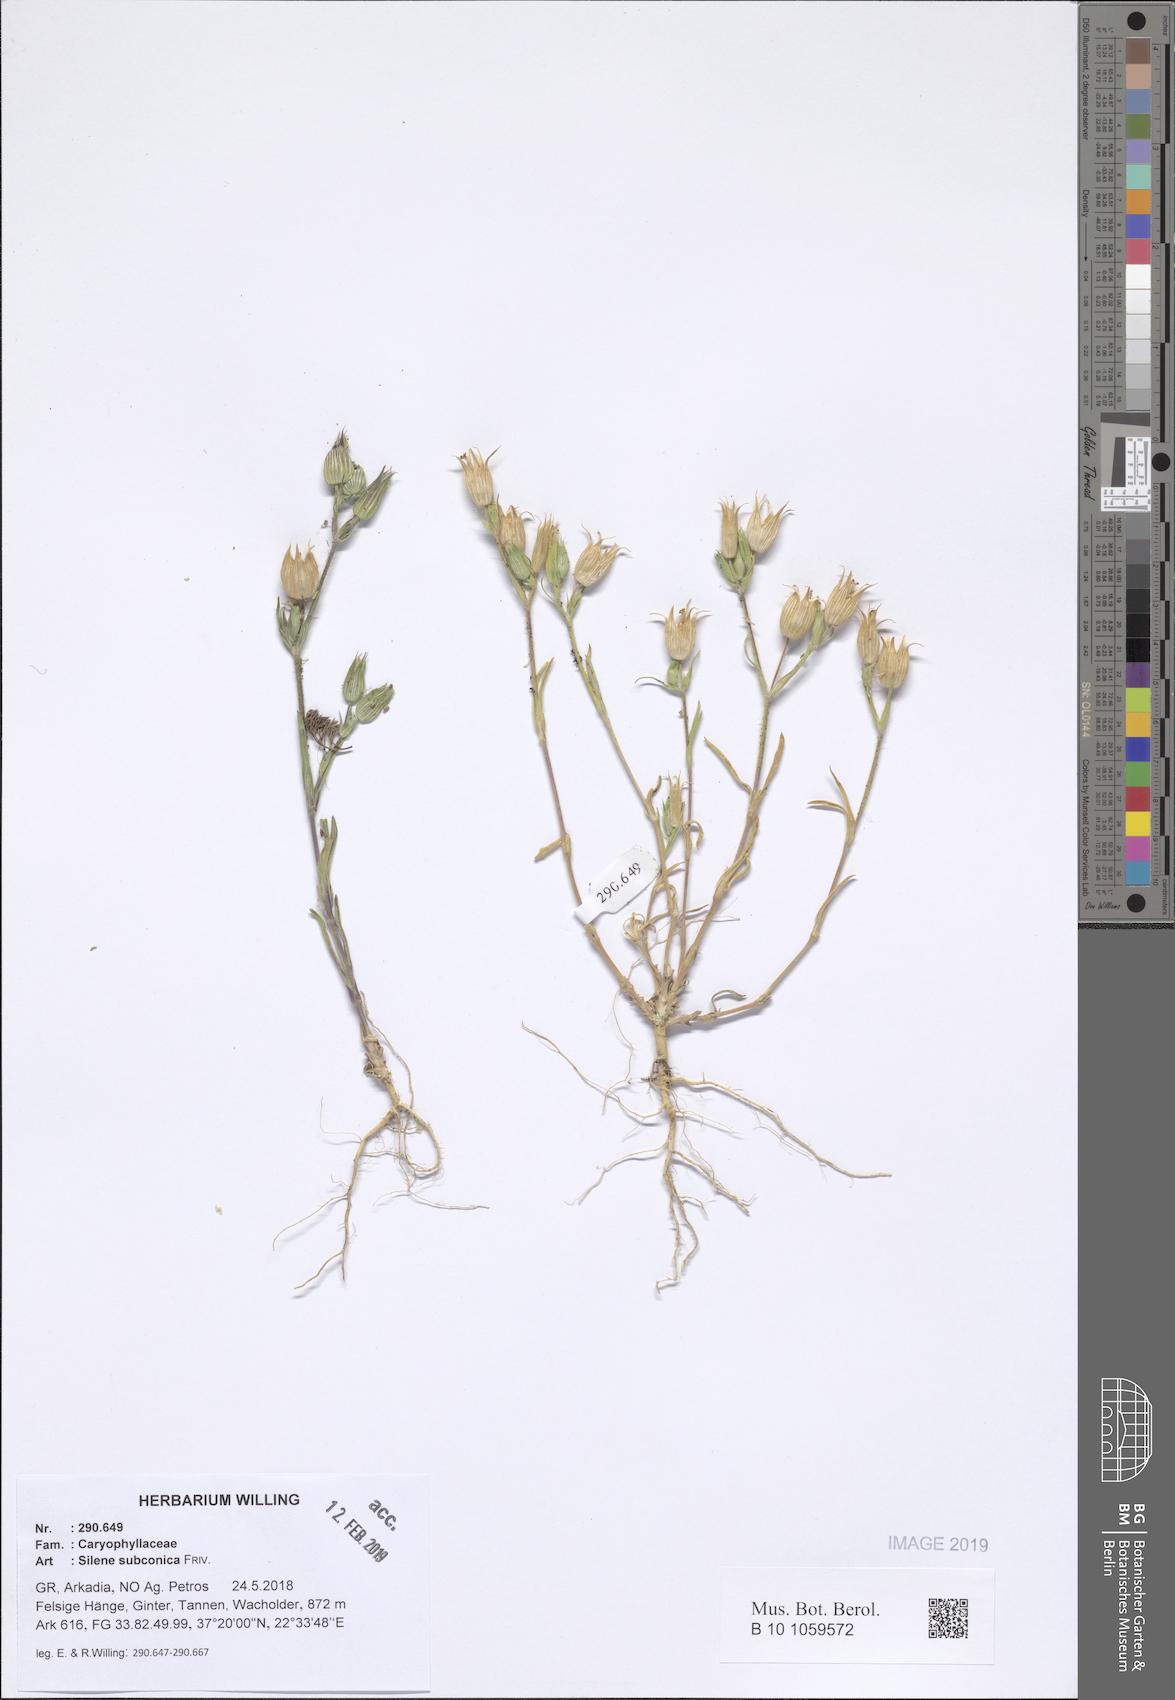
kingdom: Plantae
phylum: Tracheophyta
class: Magnoliopsida
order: Caryophyllales
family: Caryophyllaceae
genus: Silene
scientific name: Silene subconica
